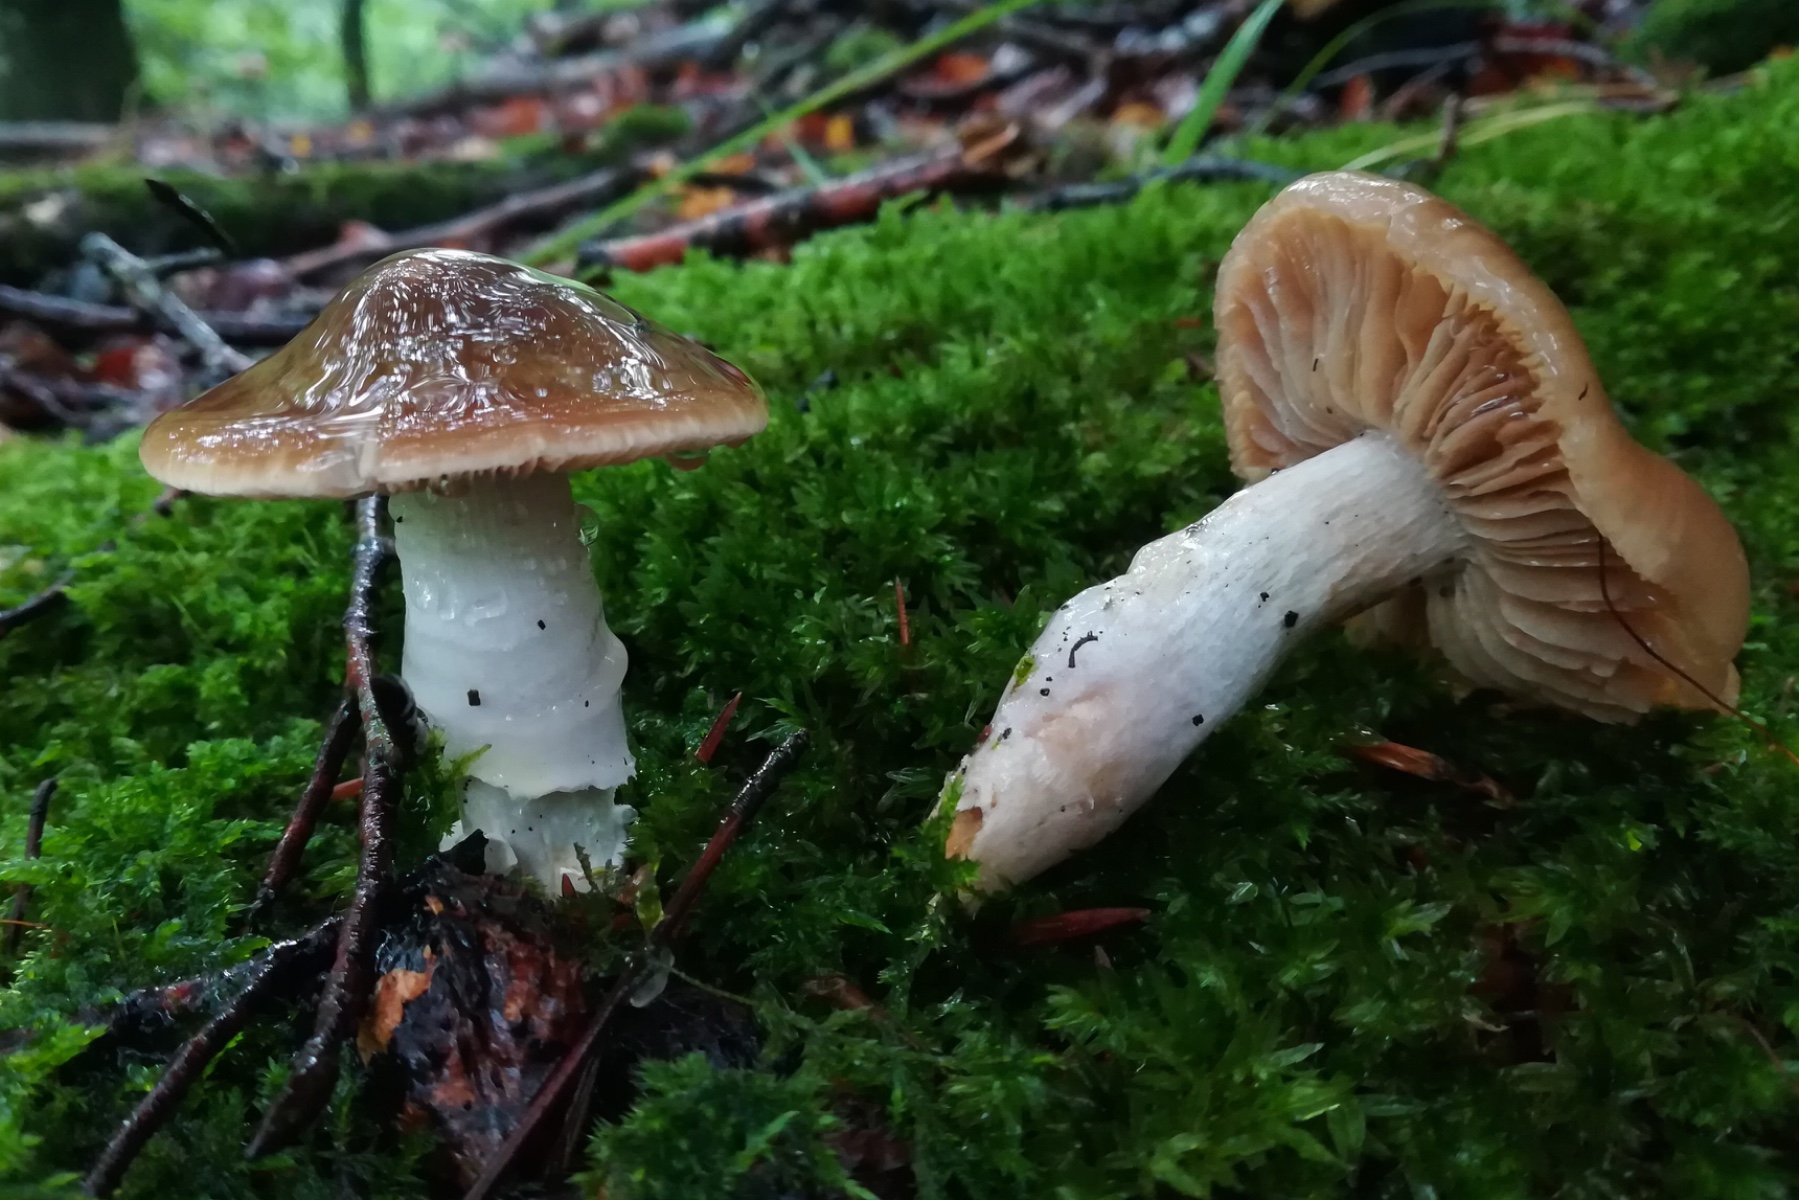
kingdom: Fungi
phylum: Basidiomycota
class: Agaricomycetes
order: Agaricales
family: Cortinariaceae
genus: Cortinarius
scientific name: Cortinarius elatior
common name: høj slørhat
